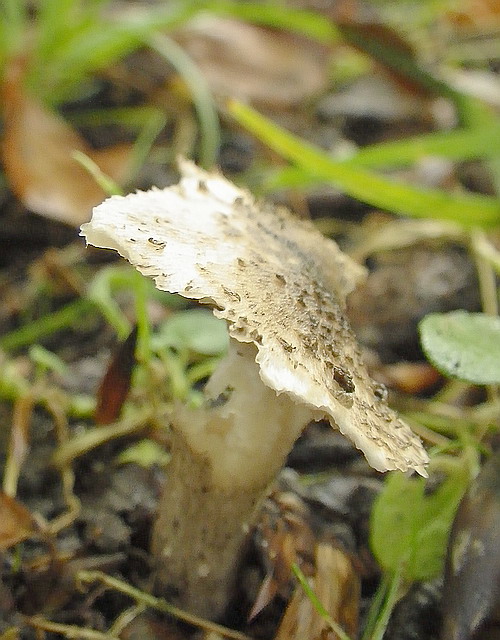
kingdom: Fungi
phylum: Basidiomycota
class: Agaricomycetes
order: Agaricales
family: Tricholomataceae
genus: Tricholoma
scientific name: Tricholoma basirubens
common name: rødfodet ridderhat
